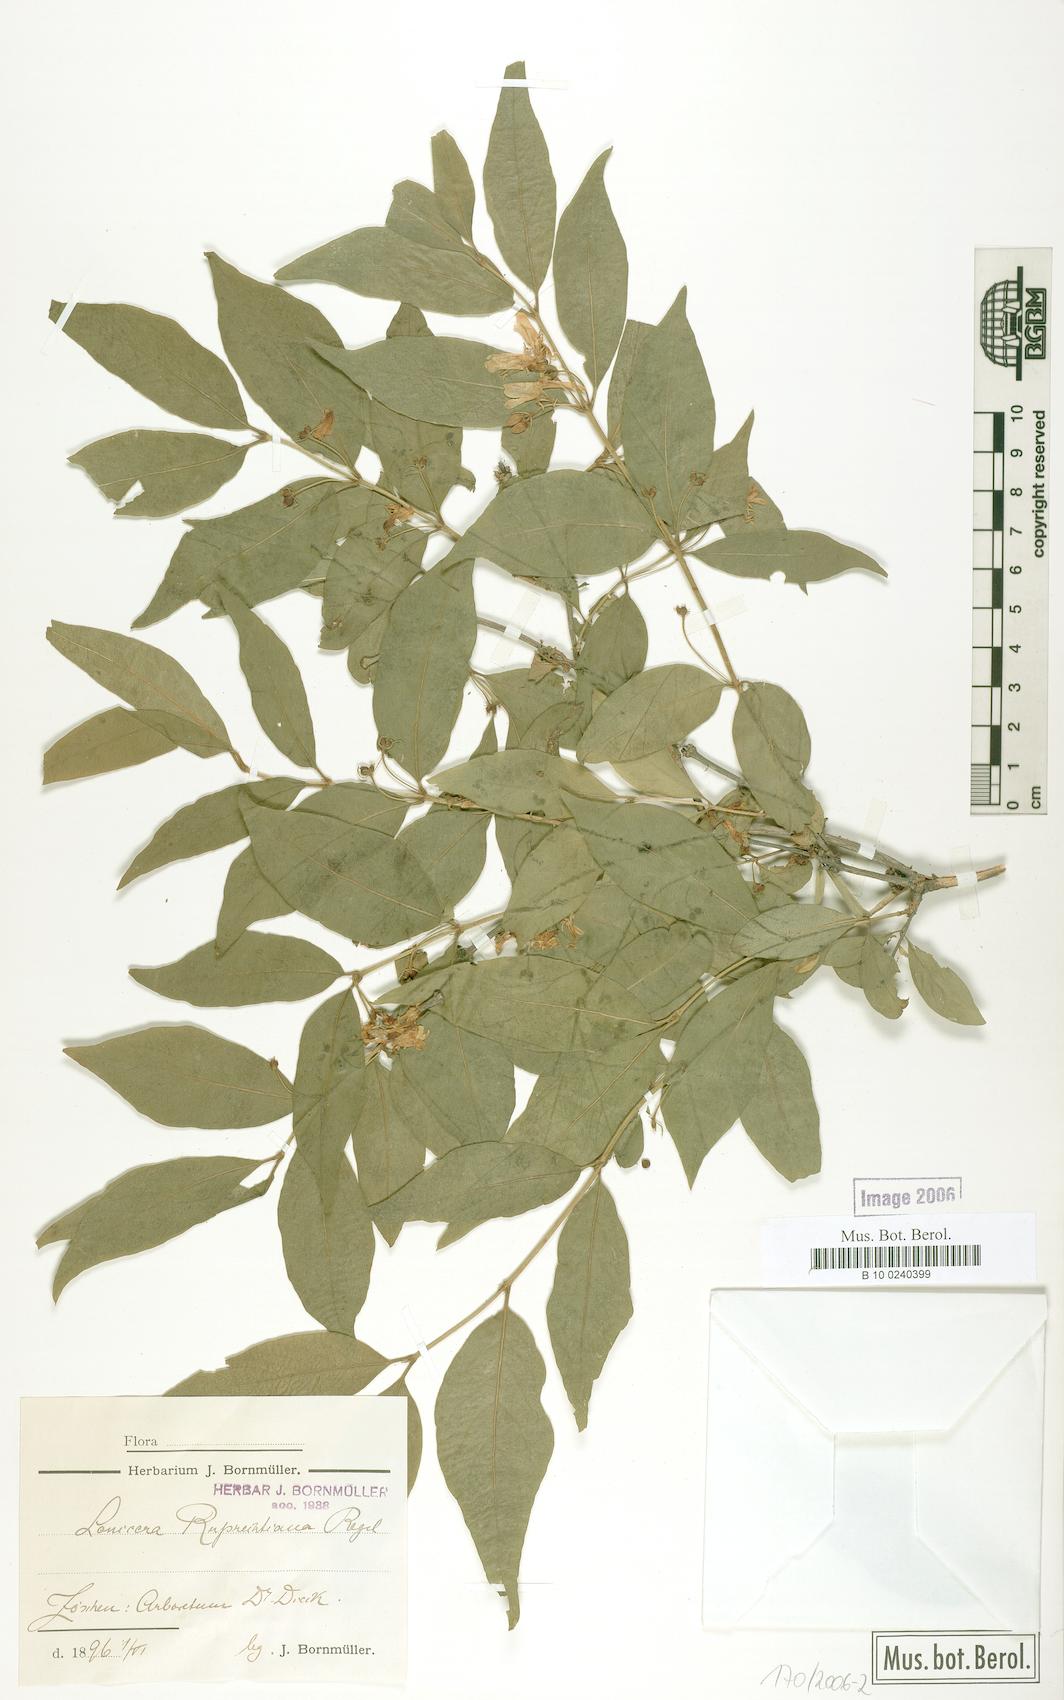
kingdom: Plantae
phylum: Tracheophyta
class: Magnoliopsida
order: Dipsacales
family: Caprifoliaceae
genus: Lonicera
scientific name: Lonicera ruprechtiana
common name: Manchurian honeysuckle
